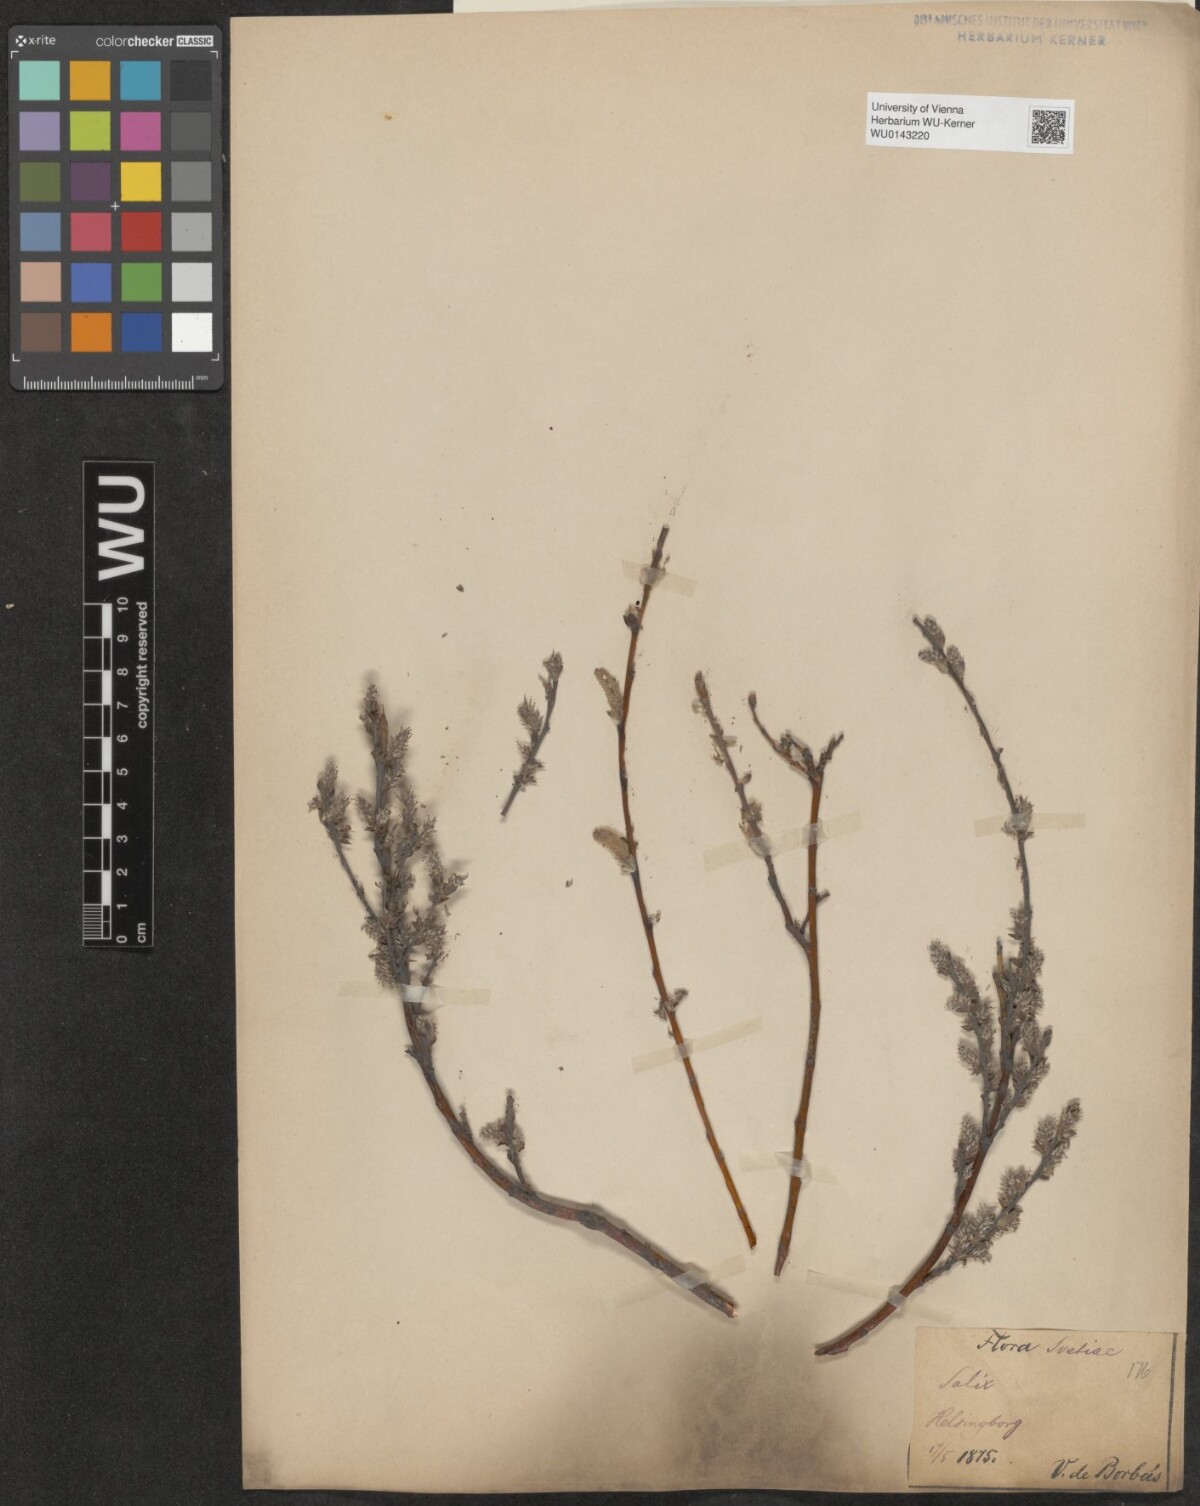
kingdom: Plantae
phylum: Tracheophyta
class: Magnoliopsida
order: Malpighiales
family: Salicaceae
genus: Salix
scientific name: Salix repens
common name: Creeping willow
